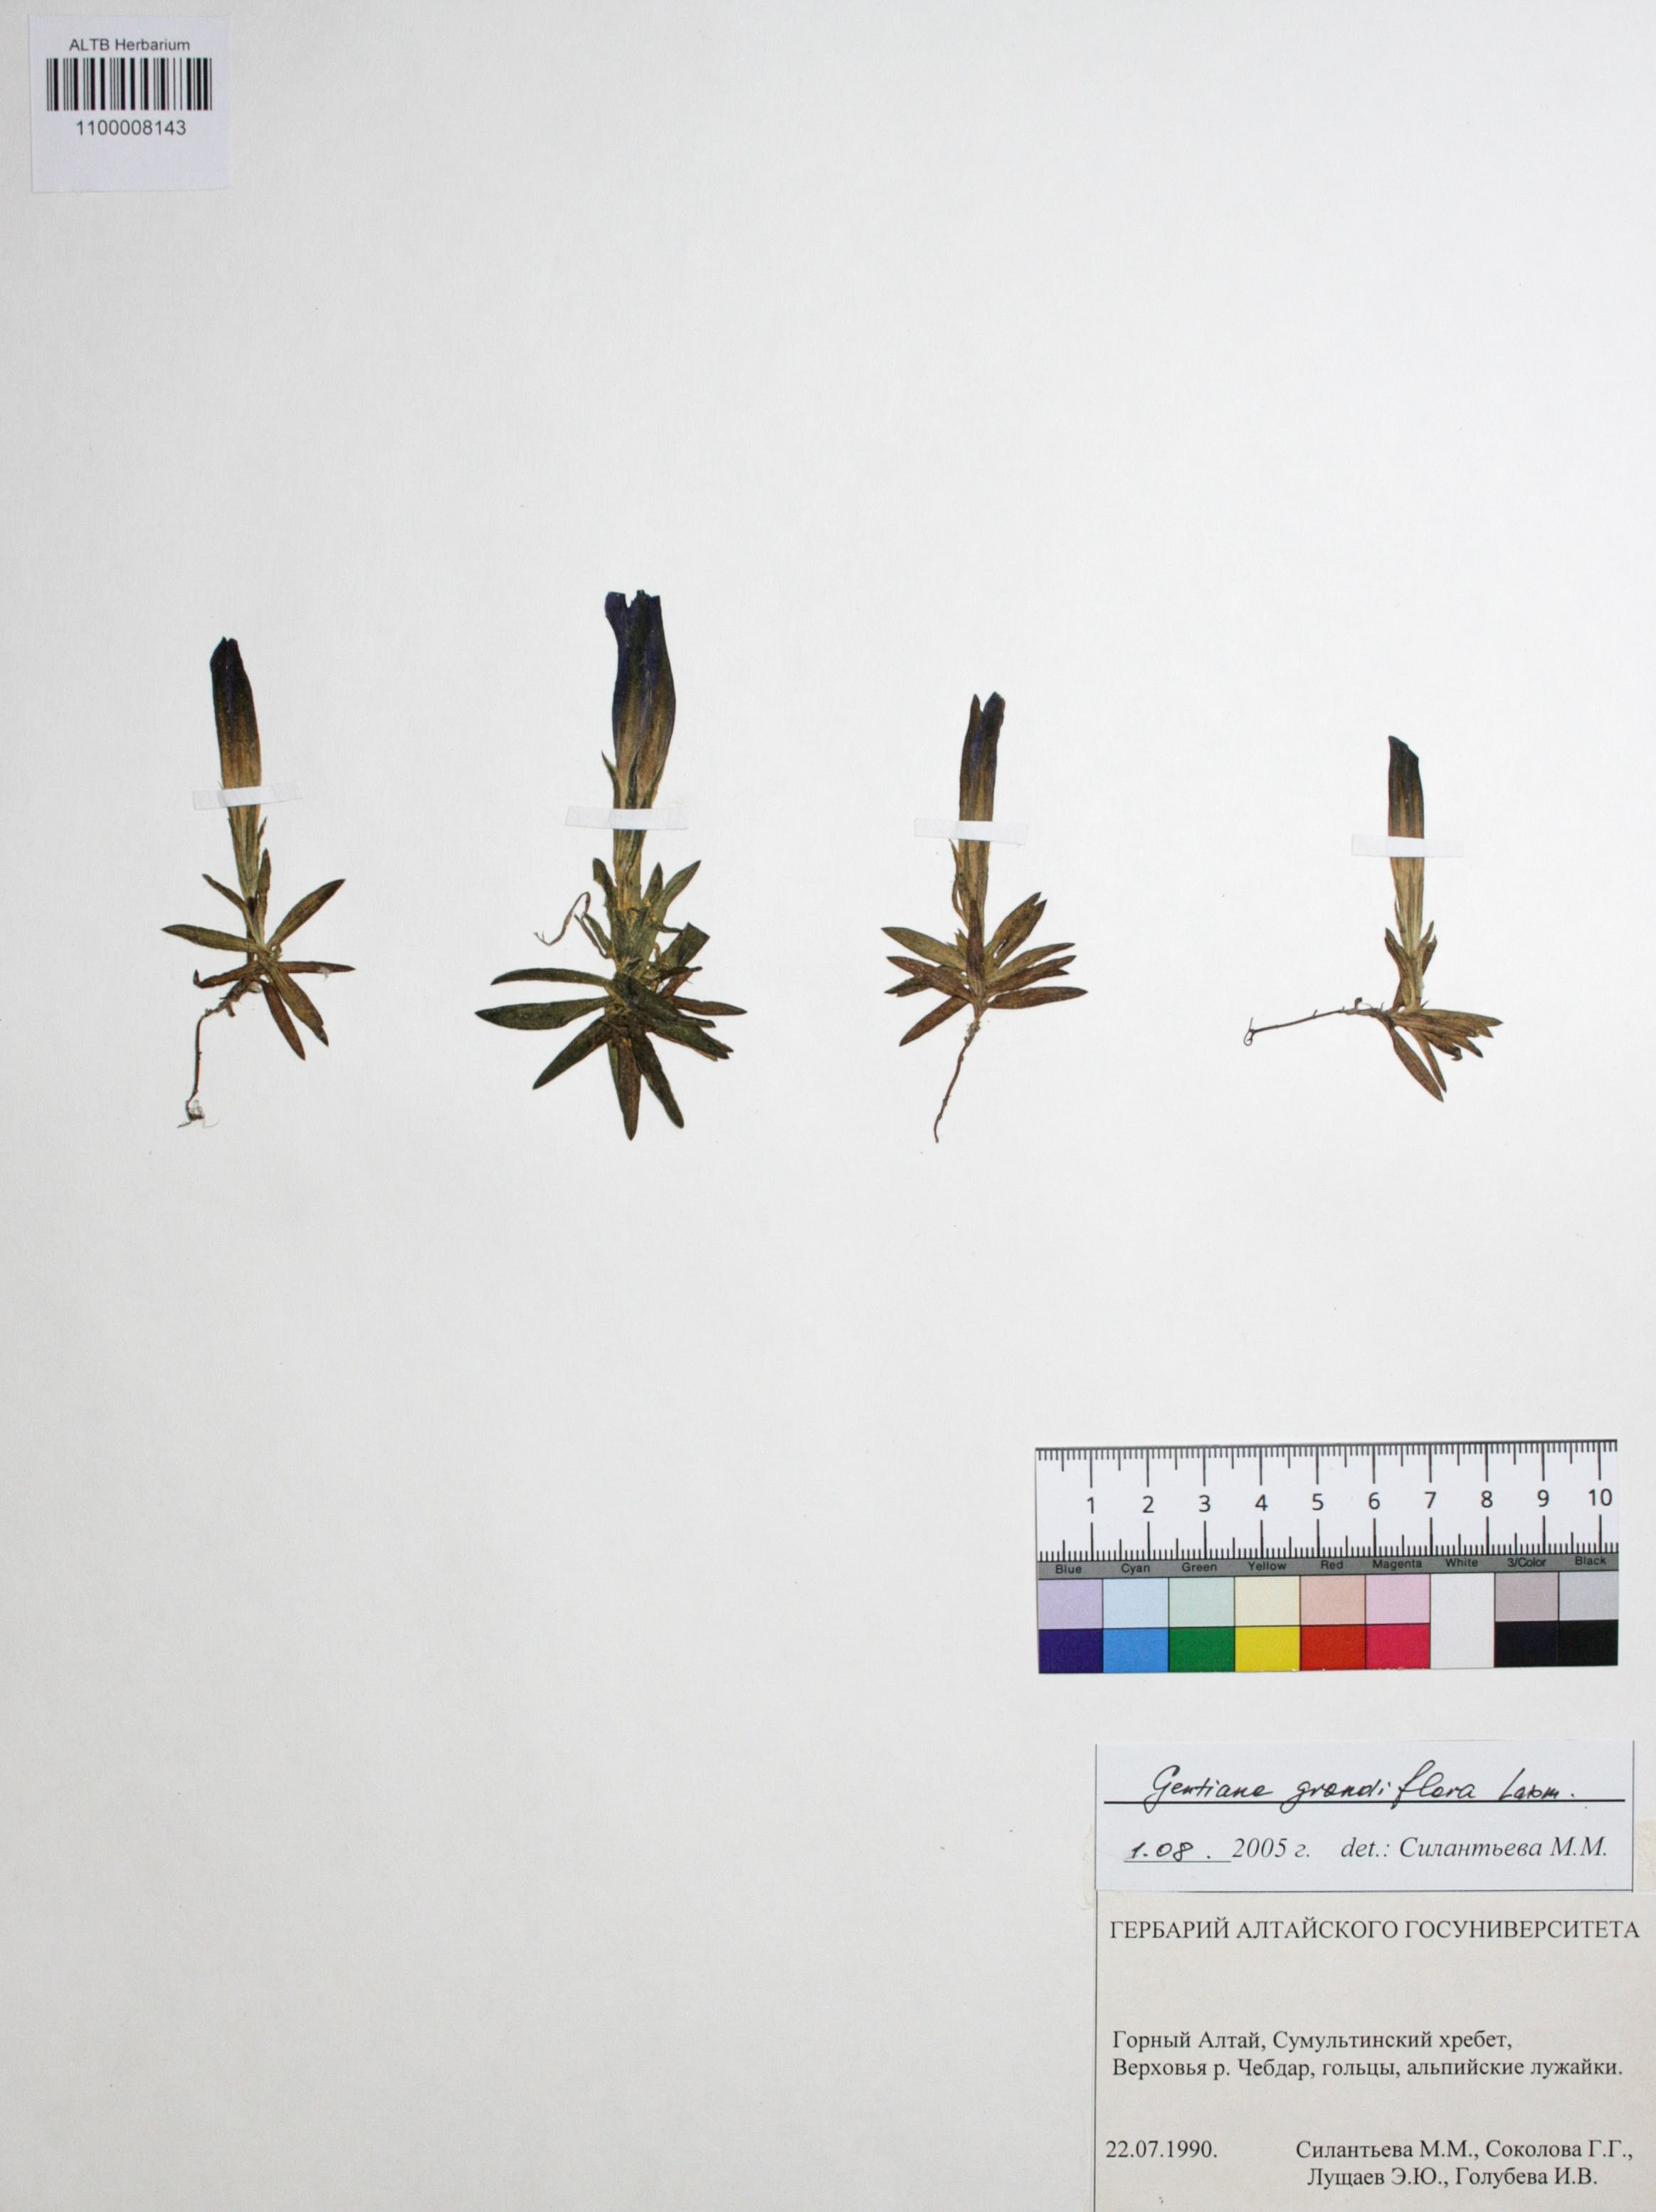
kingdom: Plantae
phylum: Tracheophyta
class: Magnoliopsida
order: Gentianales
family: Gentianaceae
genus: Gentiana
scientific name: Gentiana grandiflora
